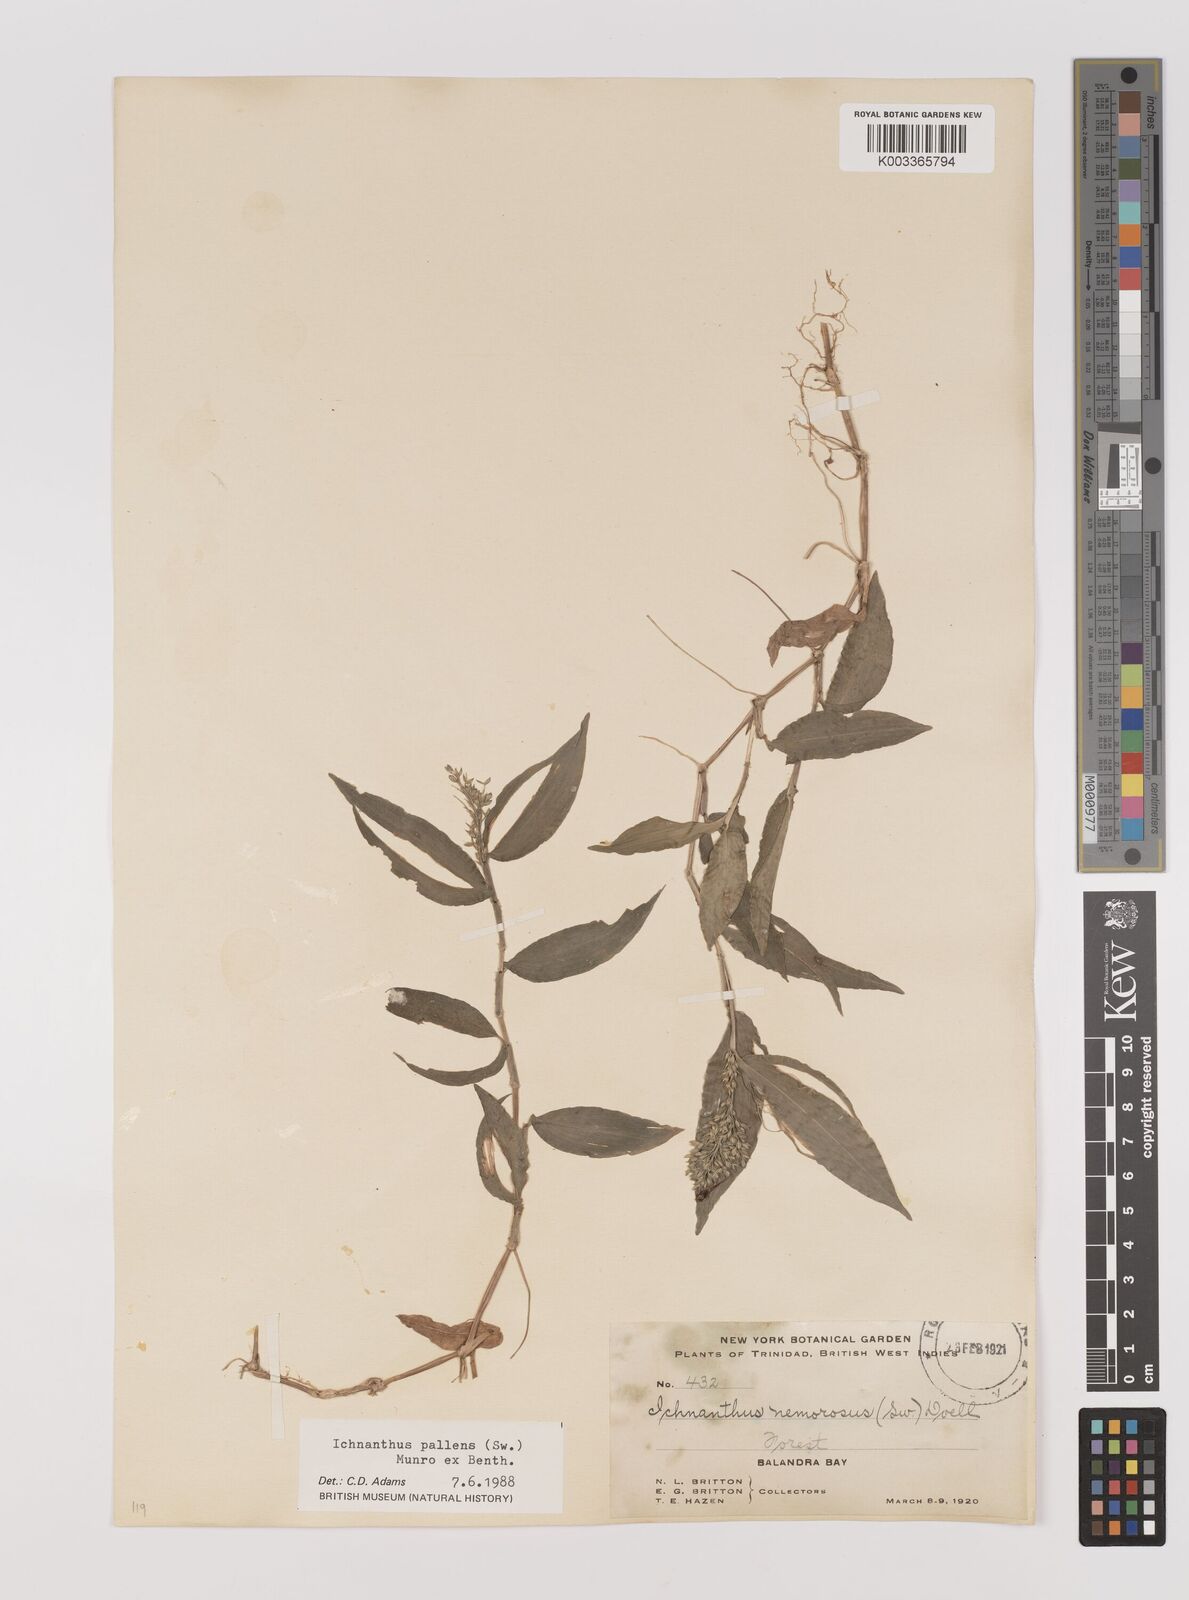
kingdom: Plantae
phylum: Tracheophyta
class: Liliopsida
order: Poales
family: Poaceae
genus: Ichnanthus
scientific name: Ichnanthus pallens
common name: Water grass
